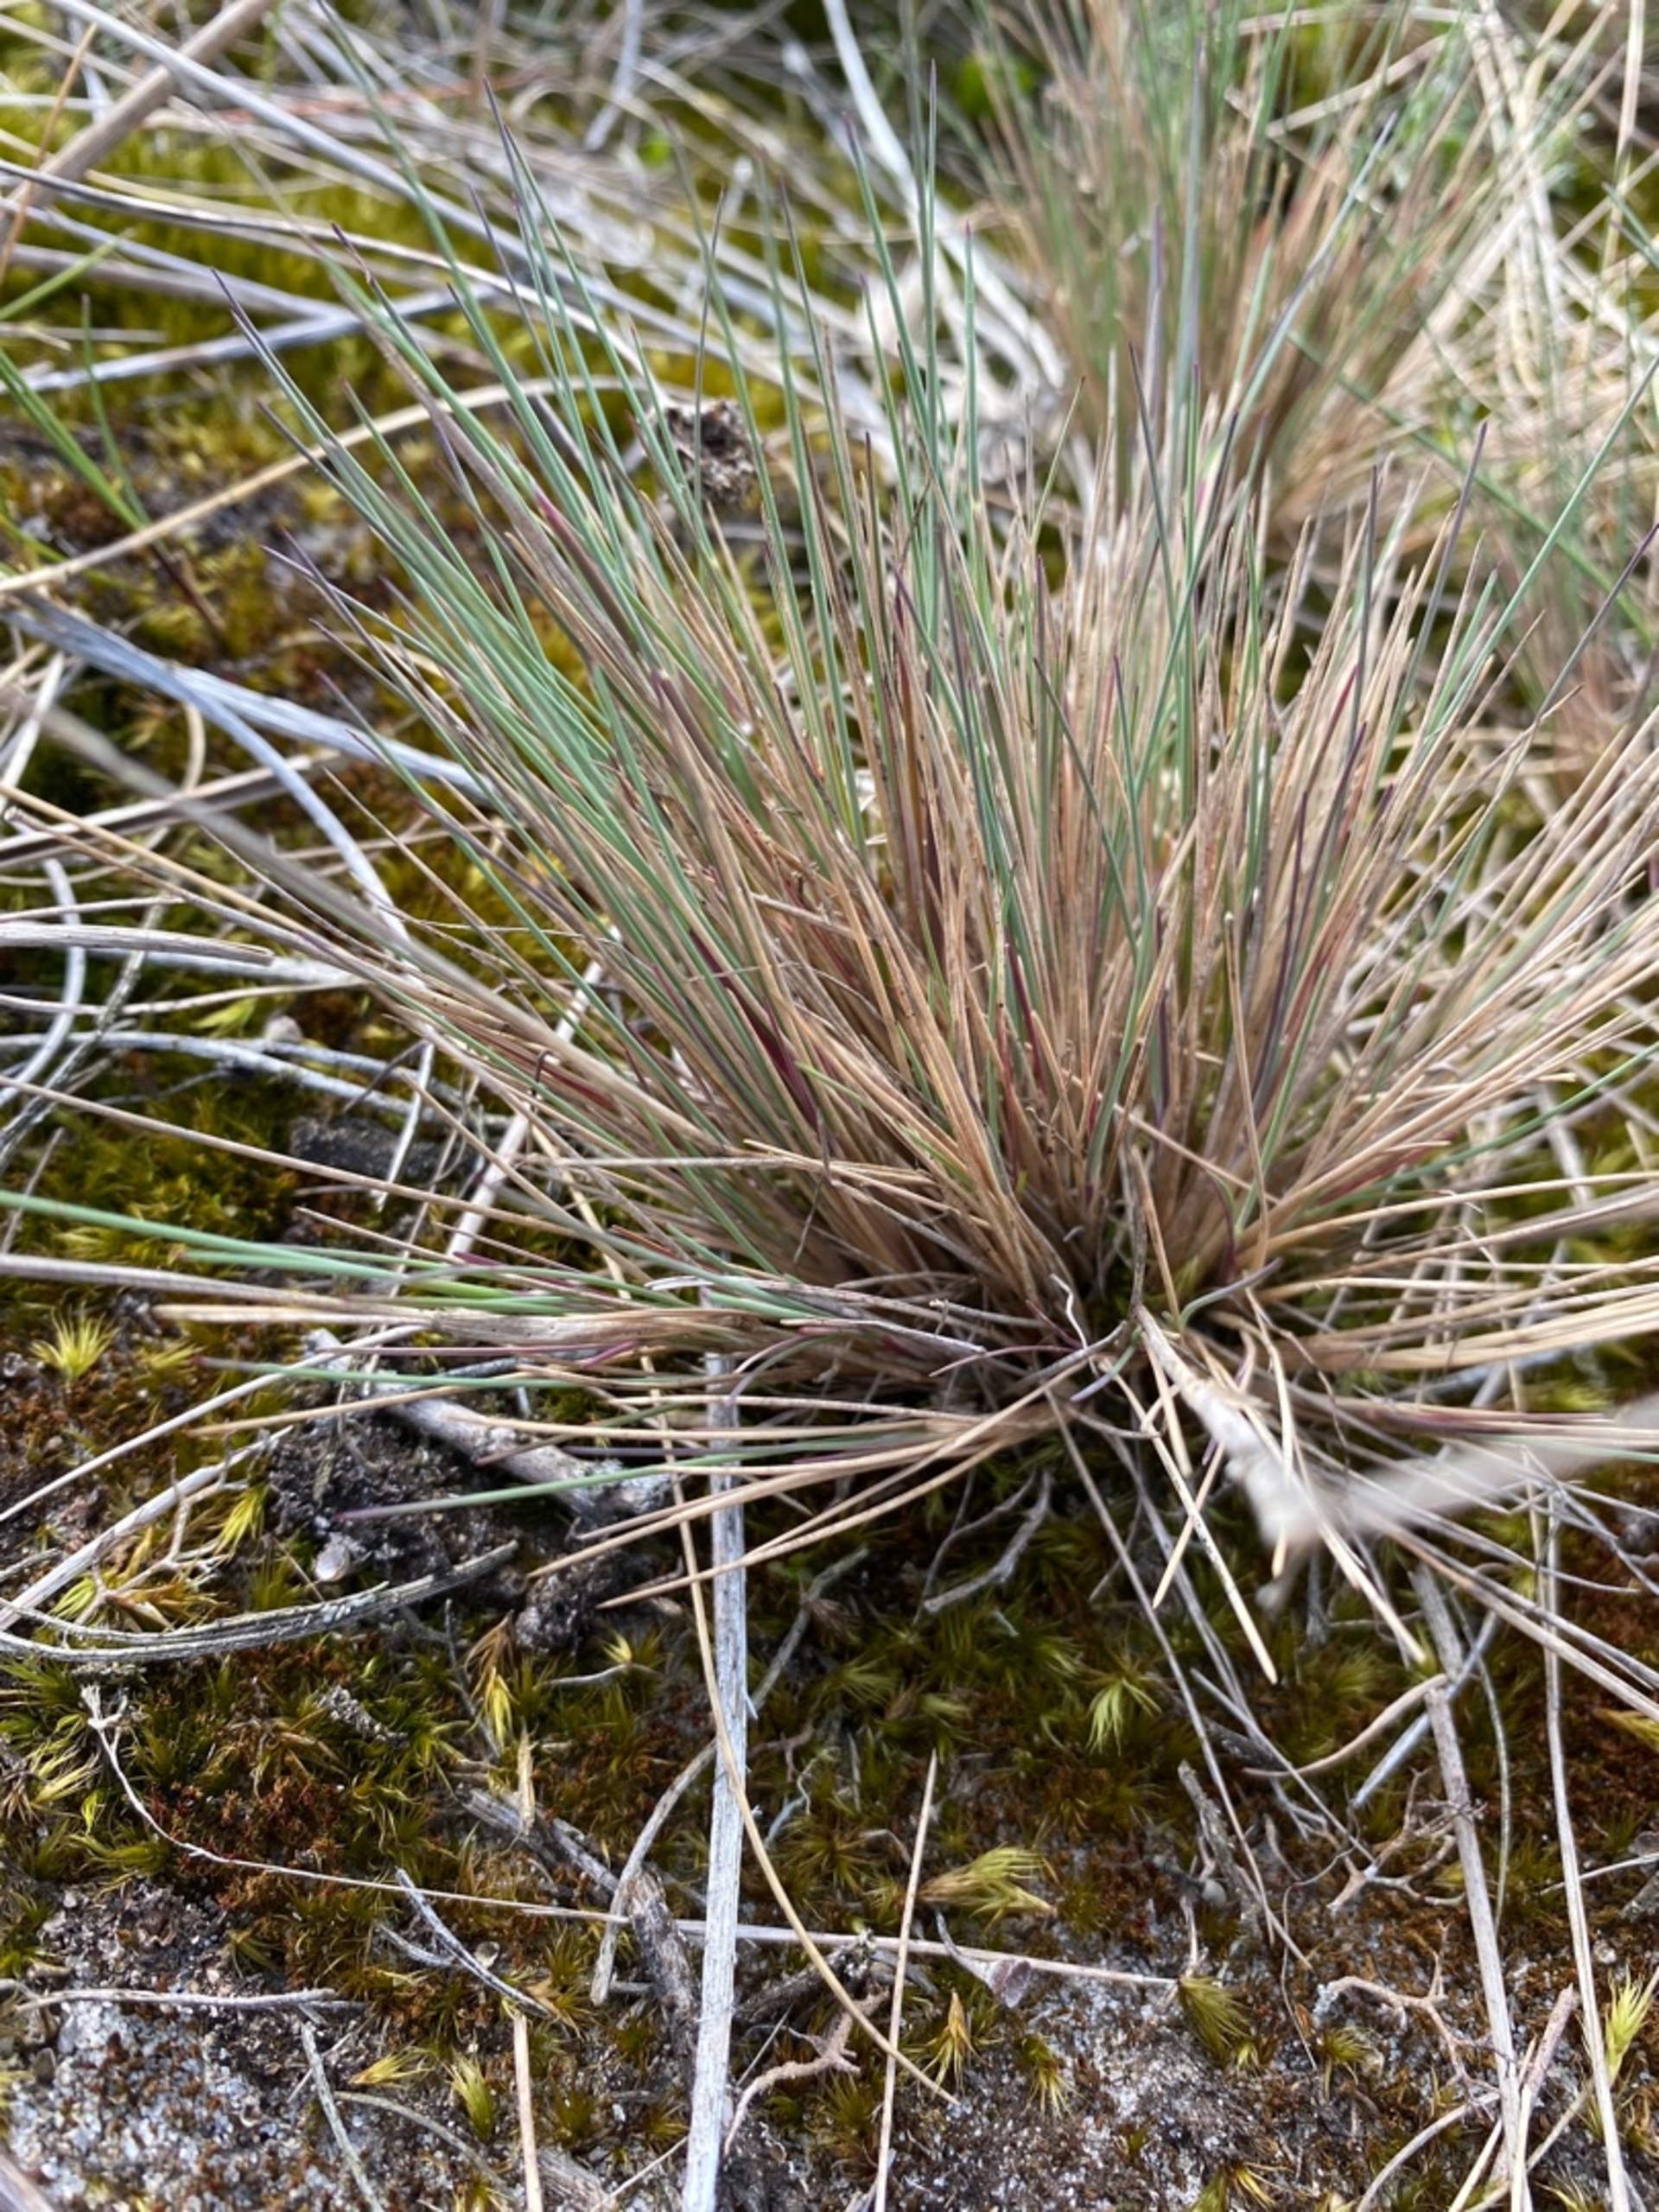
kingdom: Plantae
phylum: Tracheophyta
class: Liliopsida
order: Poales
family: Poaceae
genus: Corynephorus
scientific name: Corynephorus canescens
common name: Sandskæg
